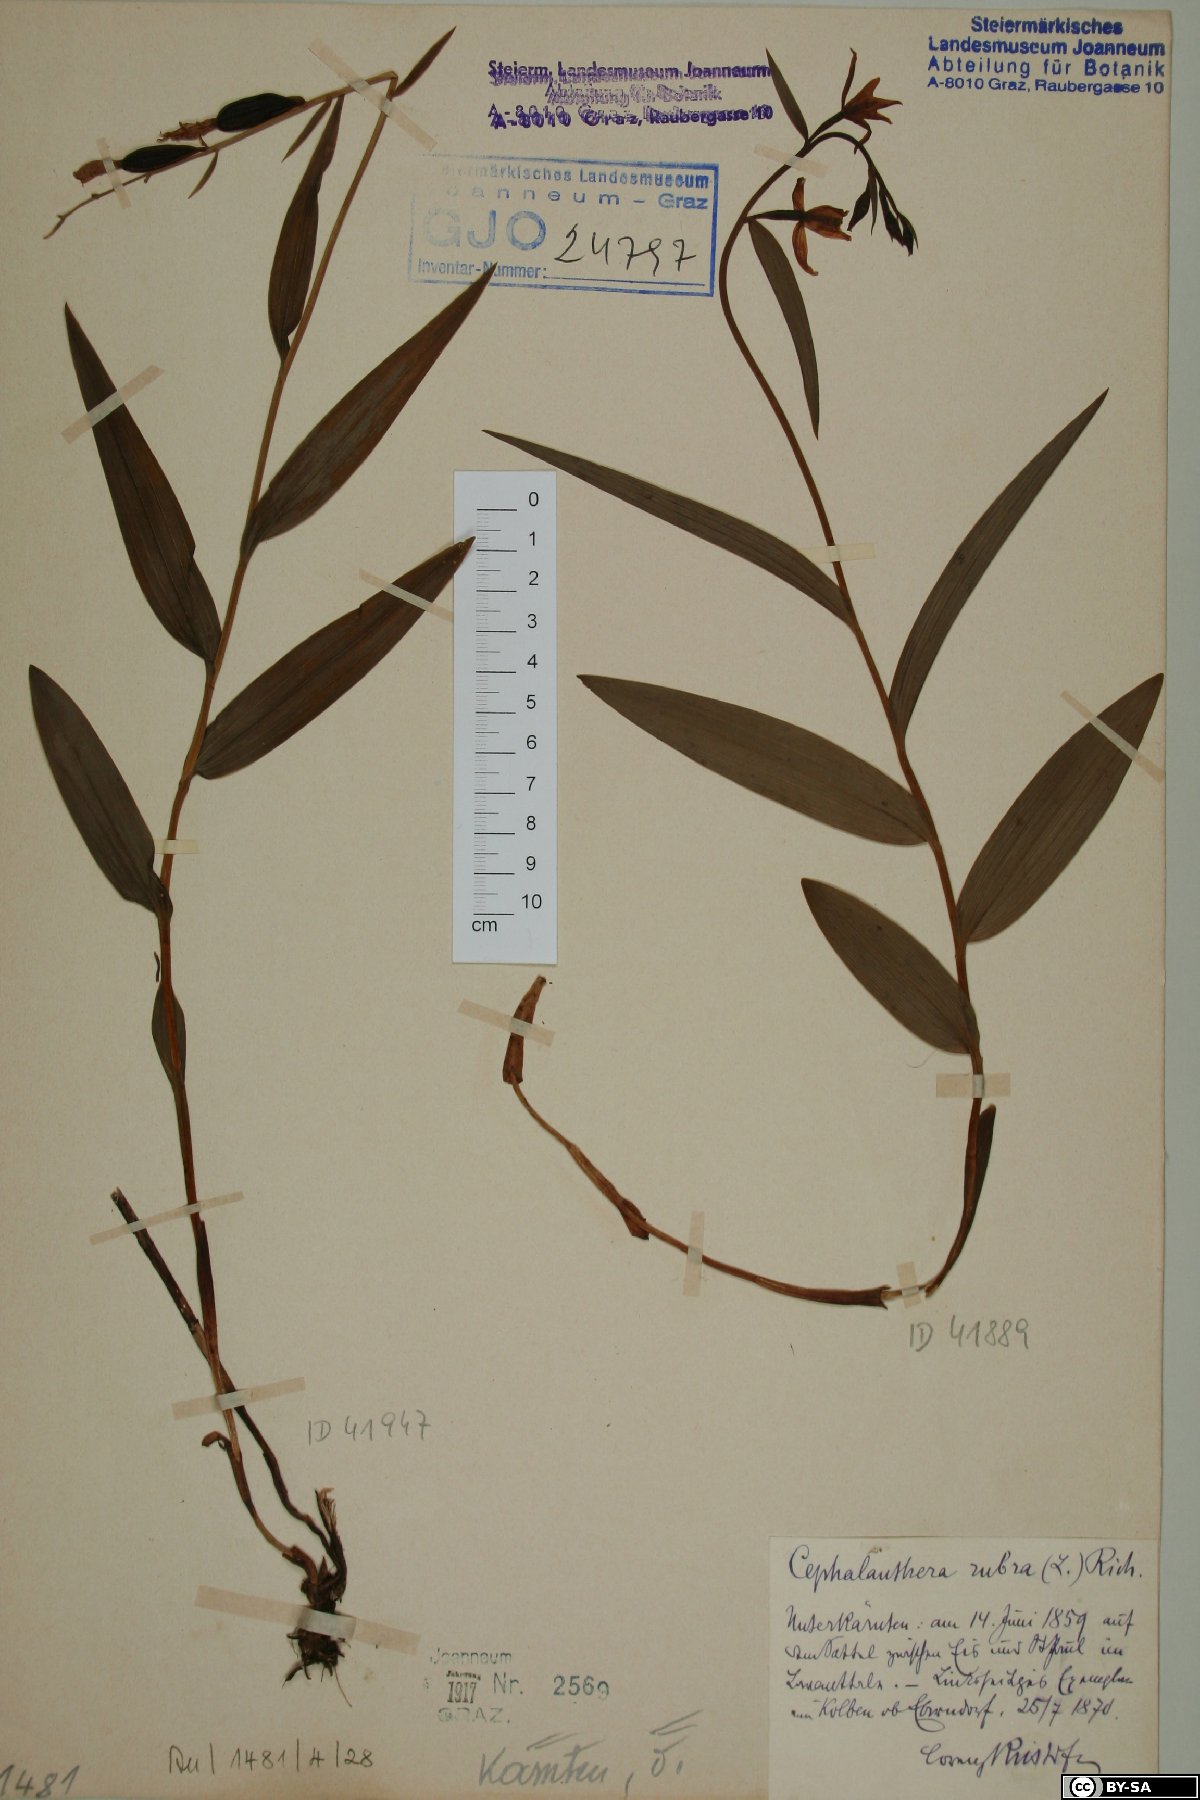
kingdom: Plantae
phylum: Tracheophyta
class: Liliopsida
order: Asparagales
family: Orchidaceae
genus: Cephalanthera
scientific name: Cephalanthera rubra
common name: Red helleborine
